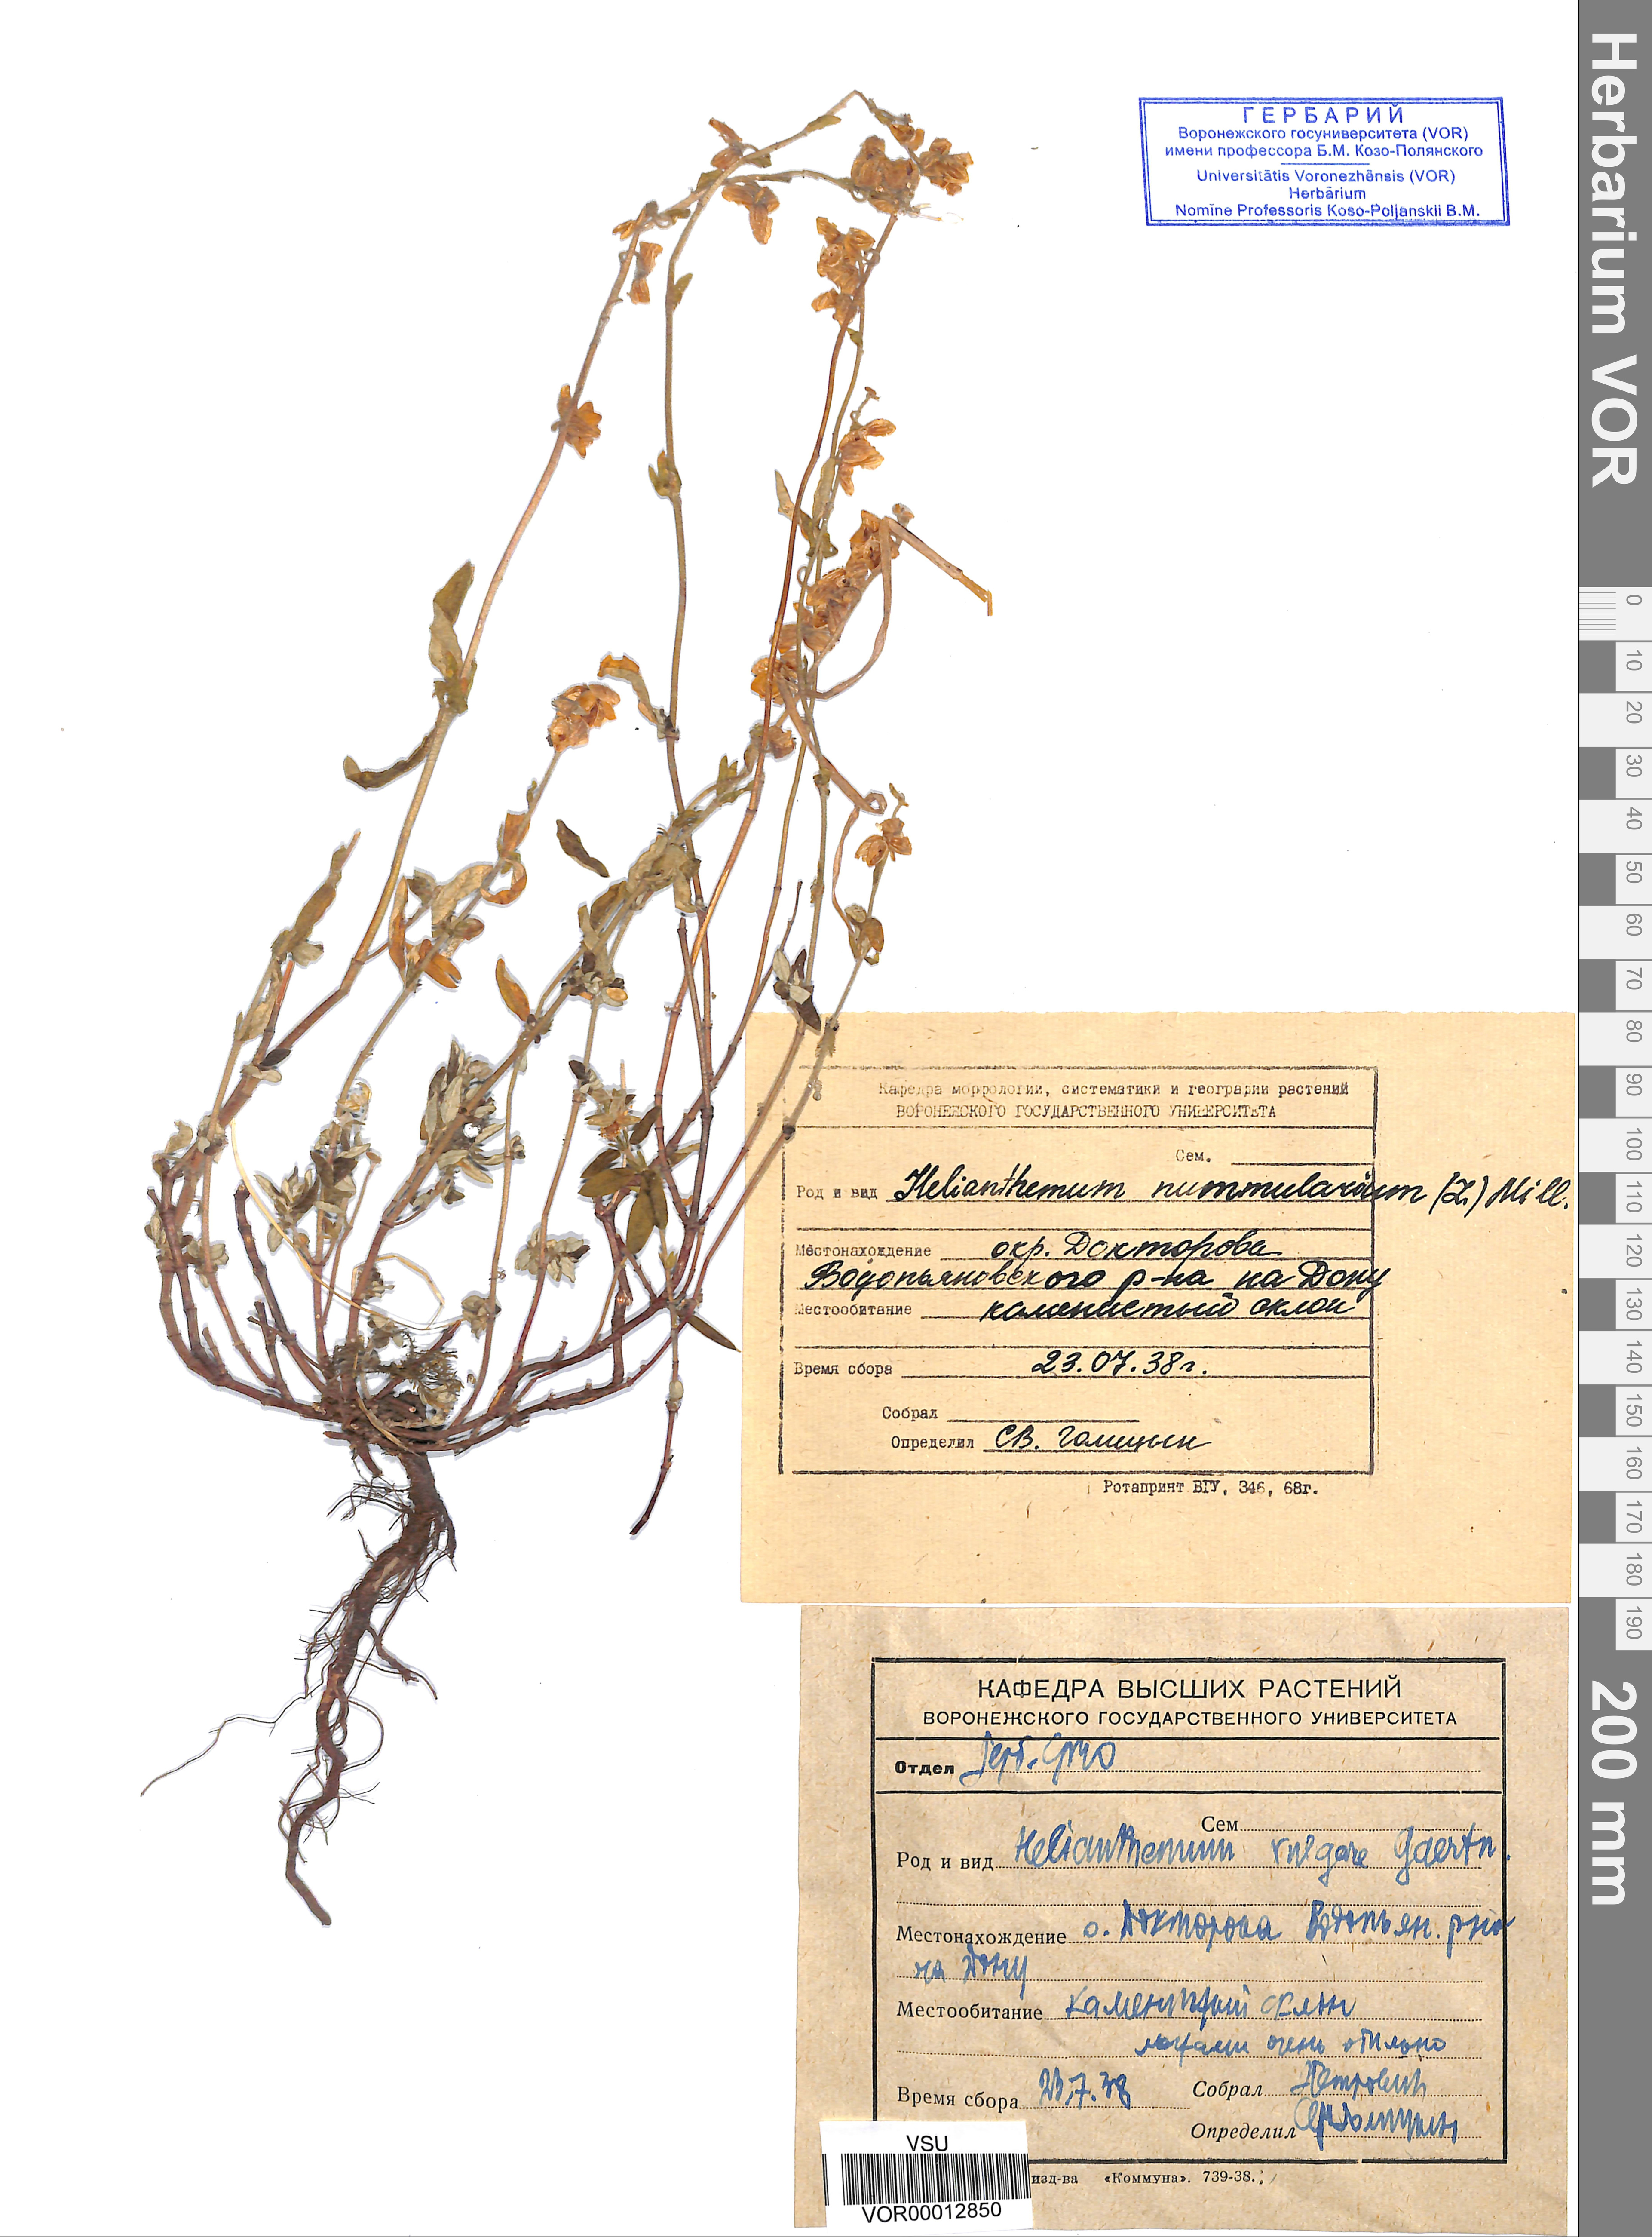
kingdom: Plantae
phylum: Tracheophyta
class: Magnoliopsida
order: Malvales
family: Cistaceae
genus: Helianthemum
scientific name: Helianthemum nummularium
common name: Common rock-rose
